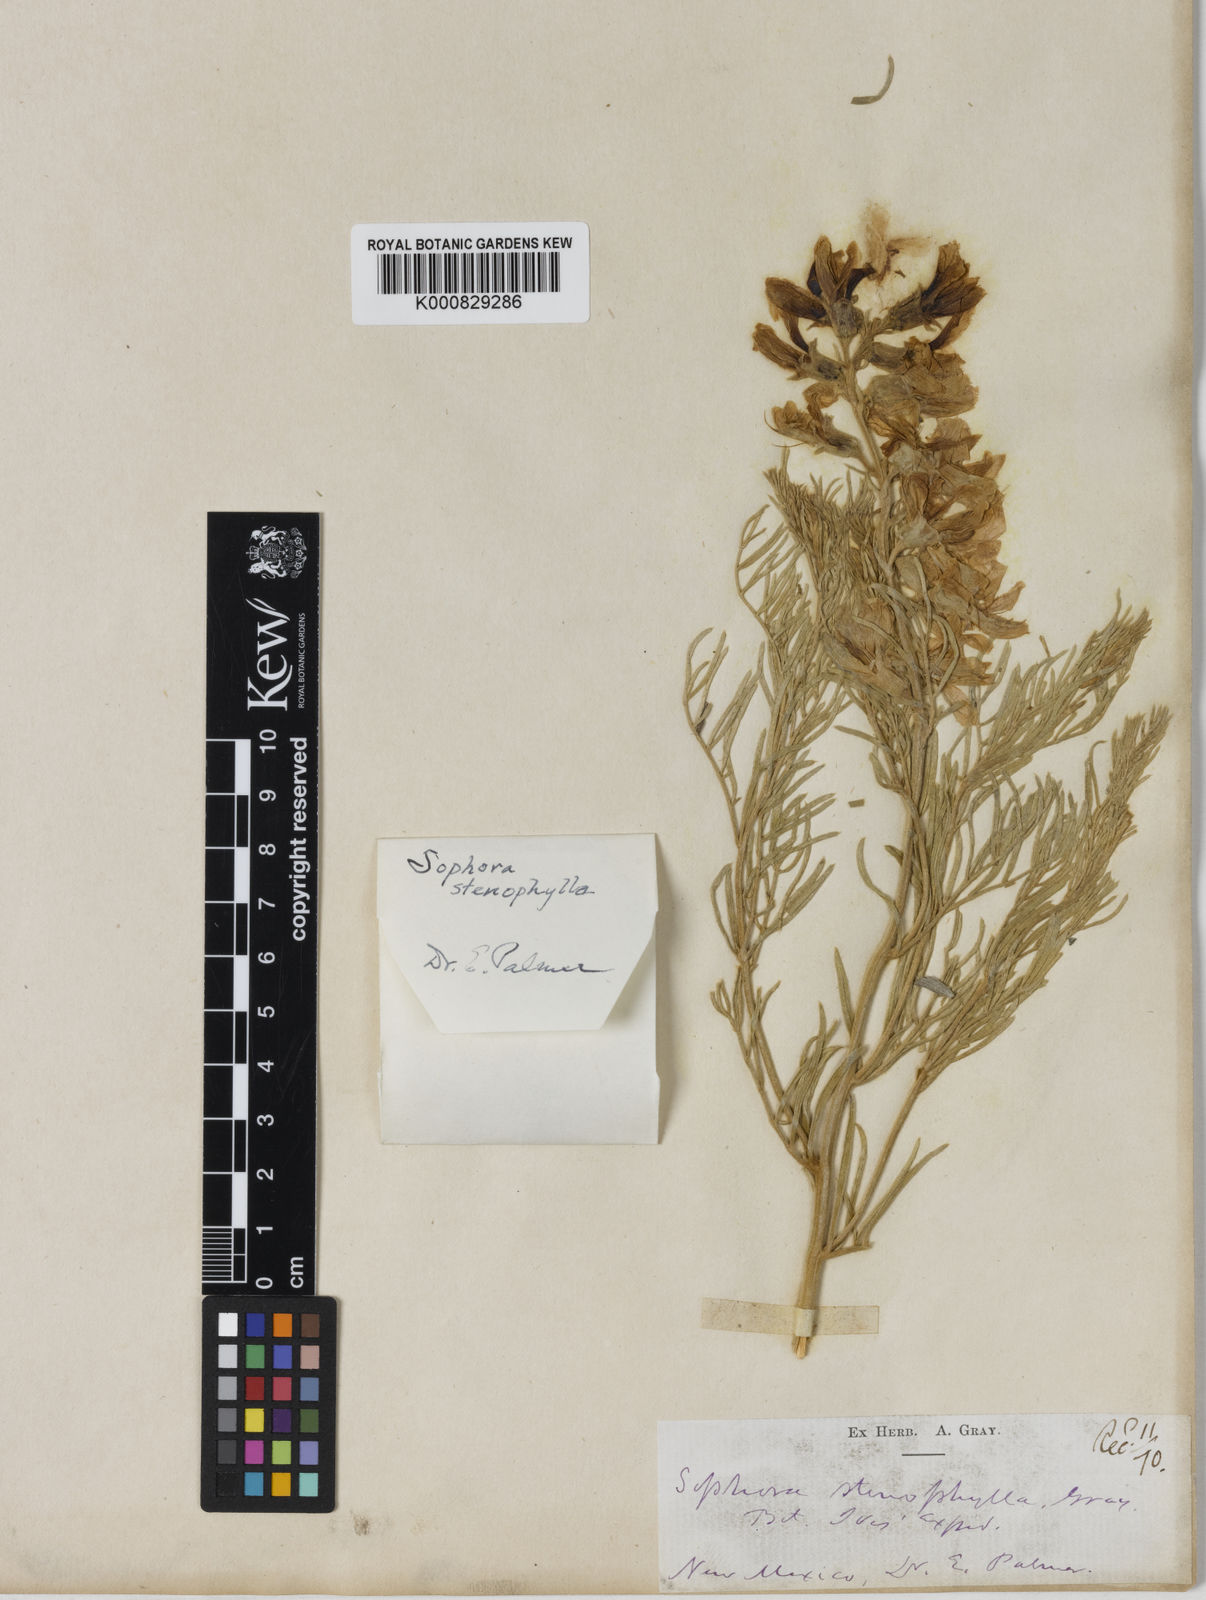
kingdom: Plantae
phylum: Tracheophyta
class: Magnoliopsida
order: Fabales
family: Fabaceae
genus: Sophora
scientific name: Sophora stenophylla
